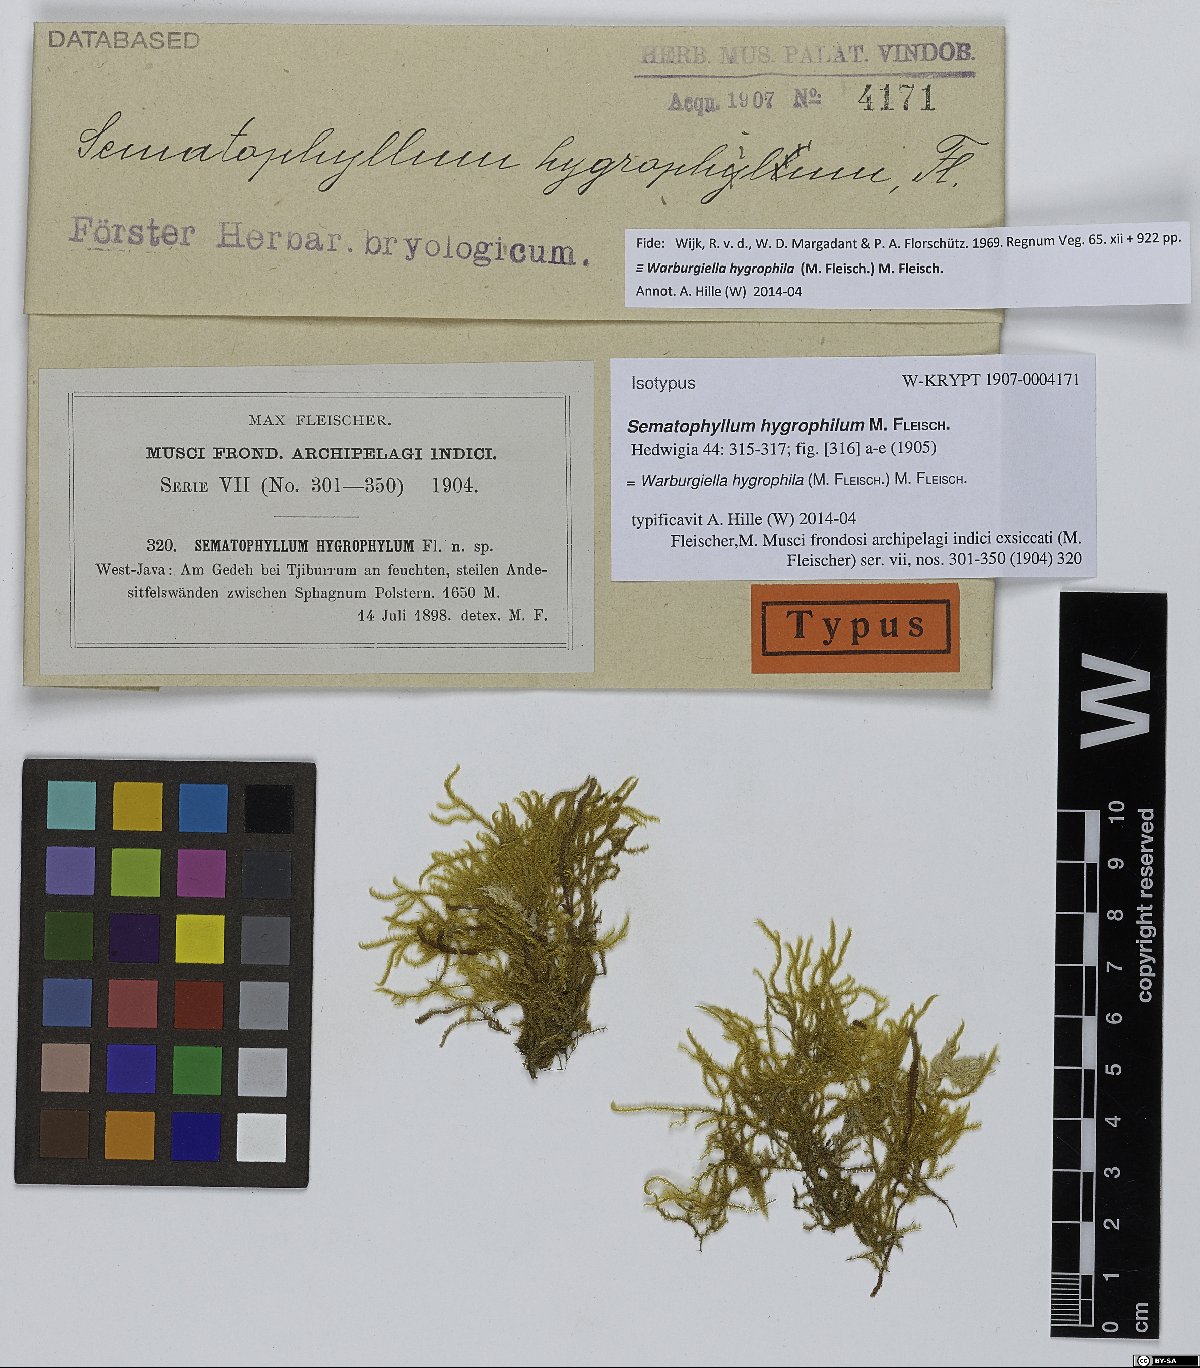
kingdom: Plantae
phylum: Bryophyta
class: Bryopsida
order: Hypnales
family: Sematophyllaceae
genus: Warburgiella
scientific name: Warburgiella hygrophila
